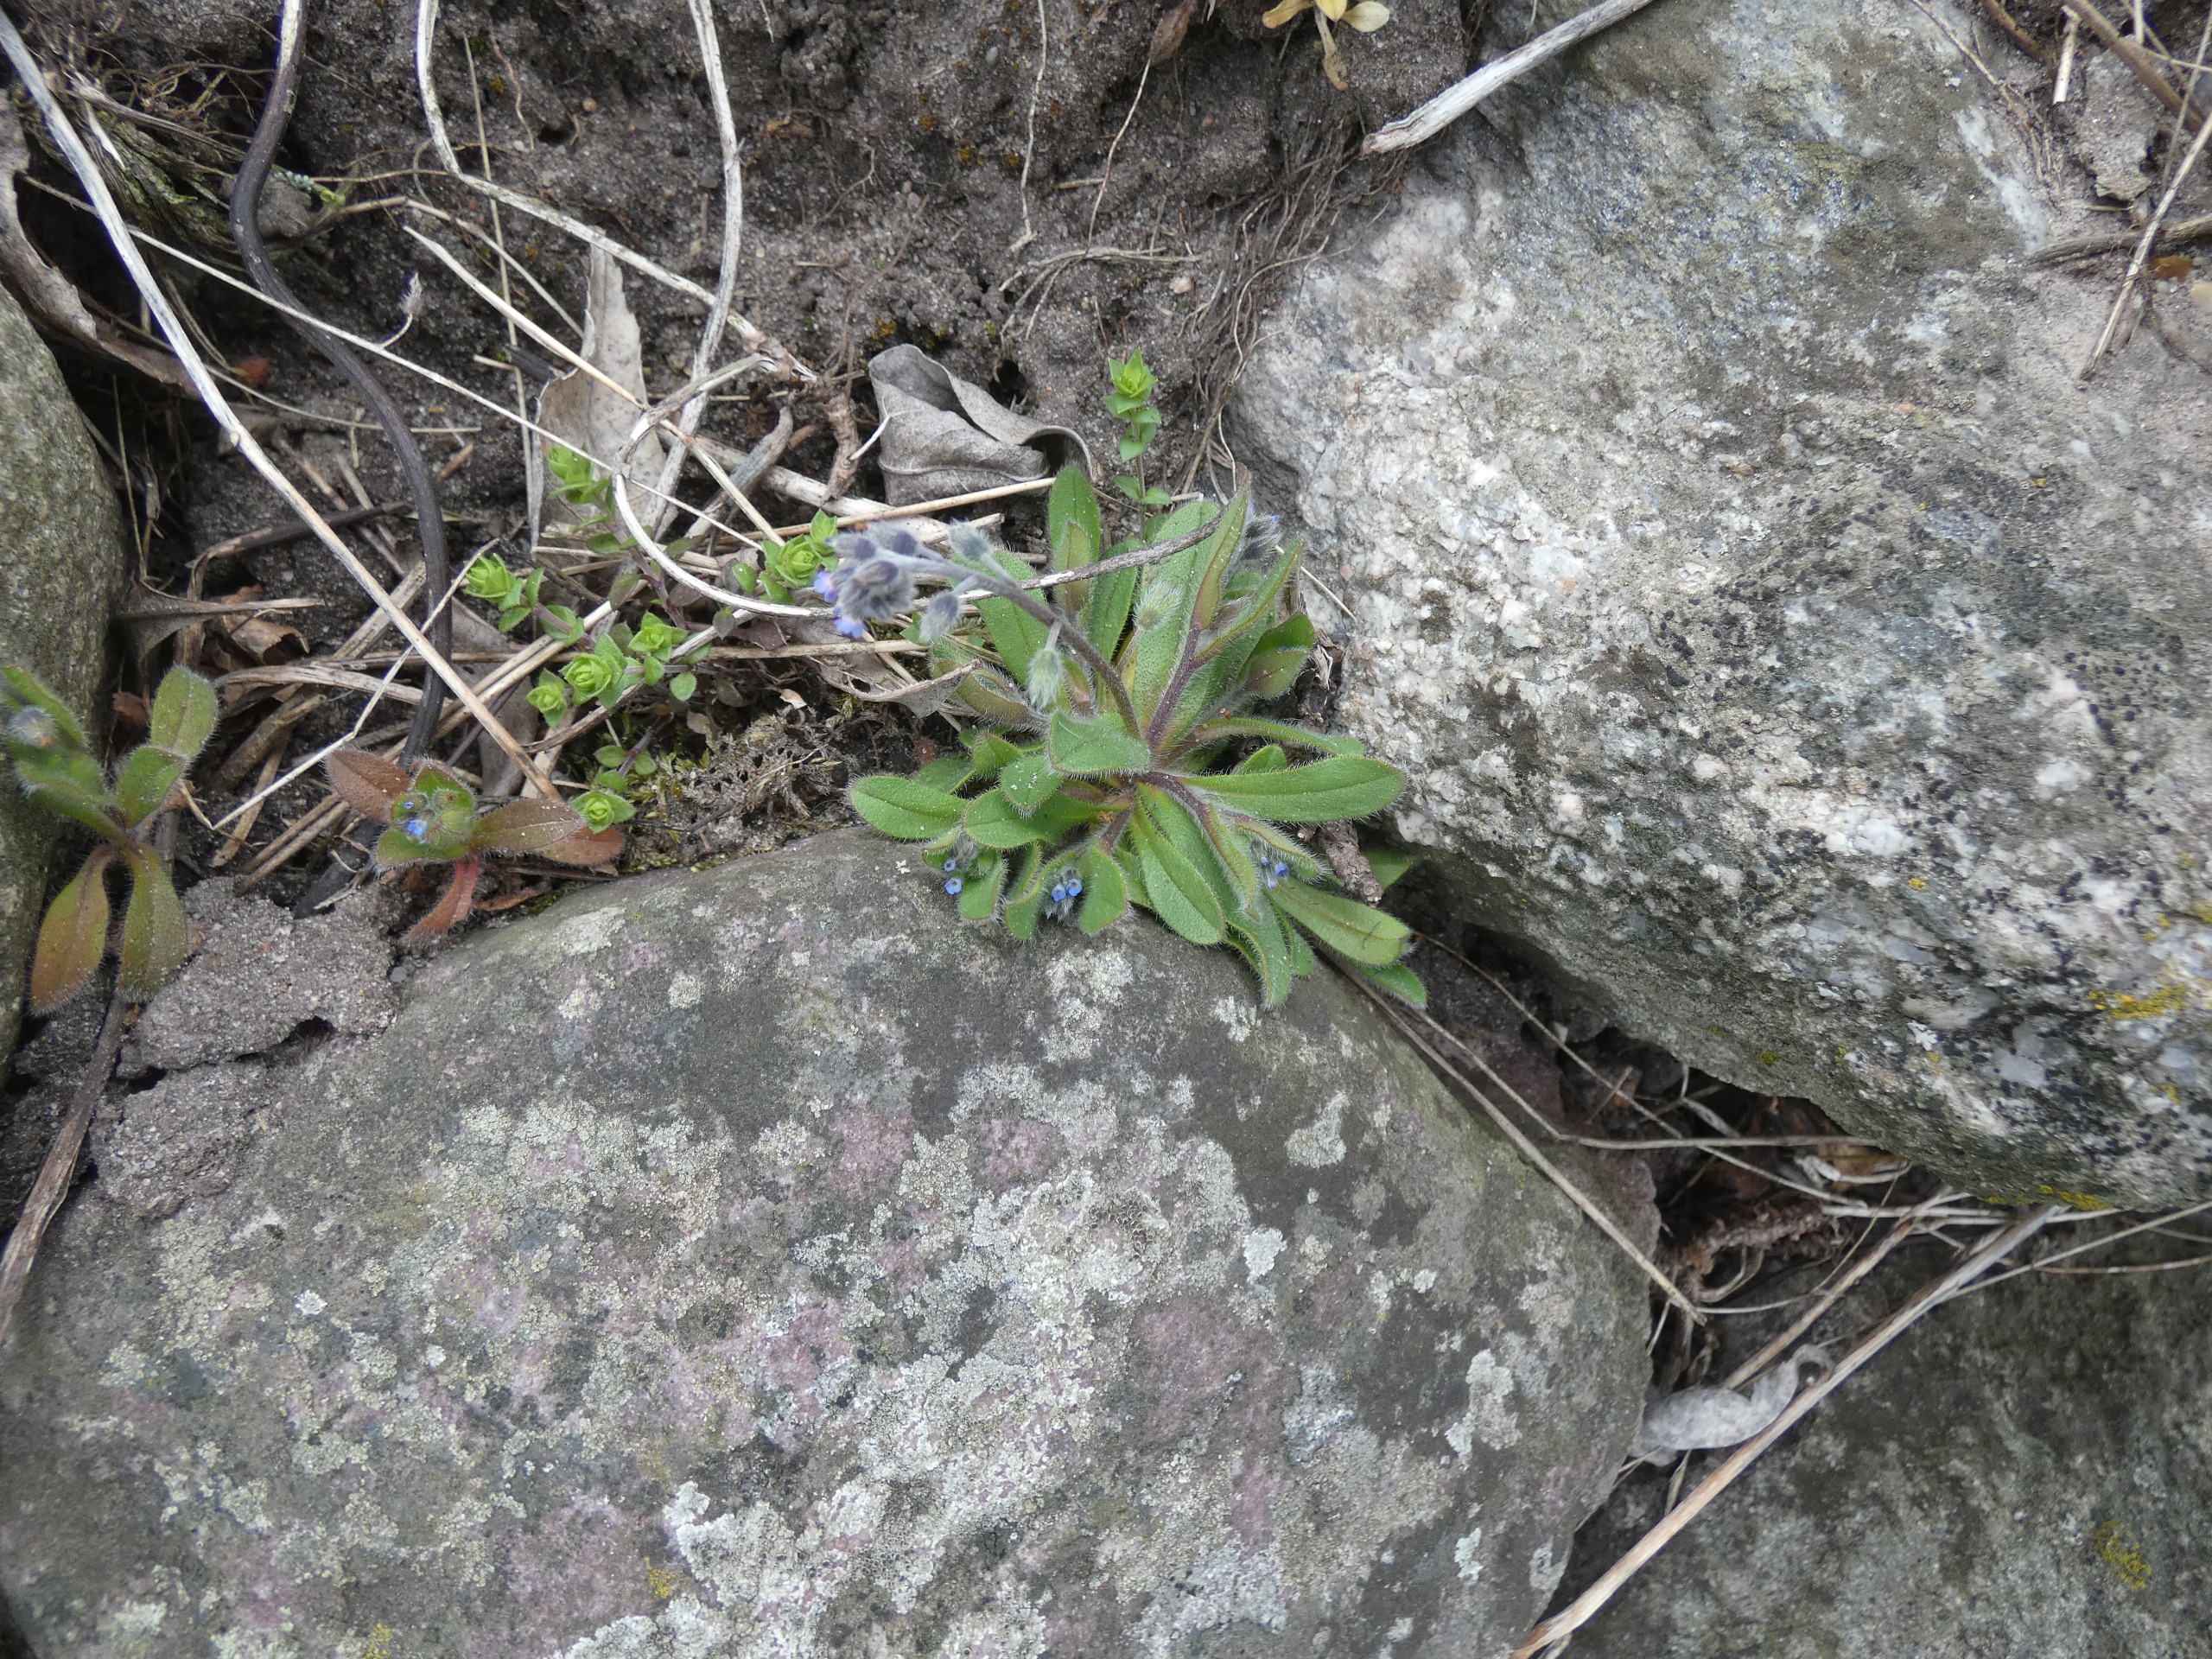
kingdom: Plantae
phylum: Tracheophyta
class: Magnoliopsida
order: Boraginales
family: Boraginaceae
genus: Myosotis
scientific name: Myosotis ramosissima
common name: Bakke-forglemmigej
